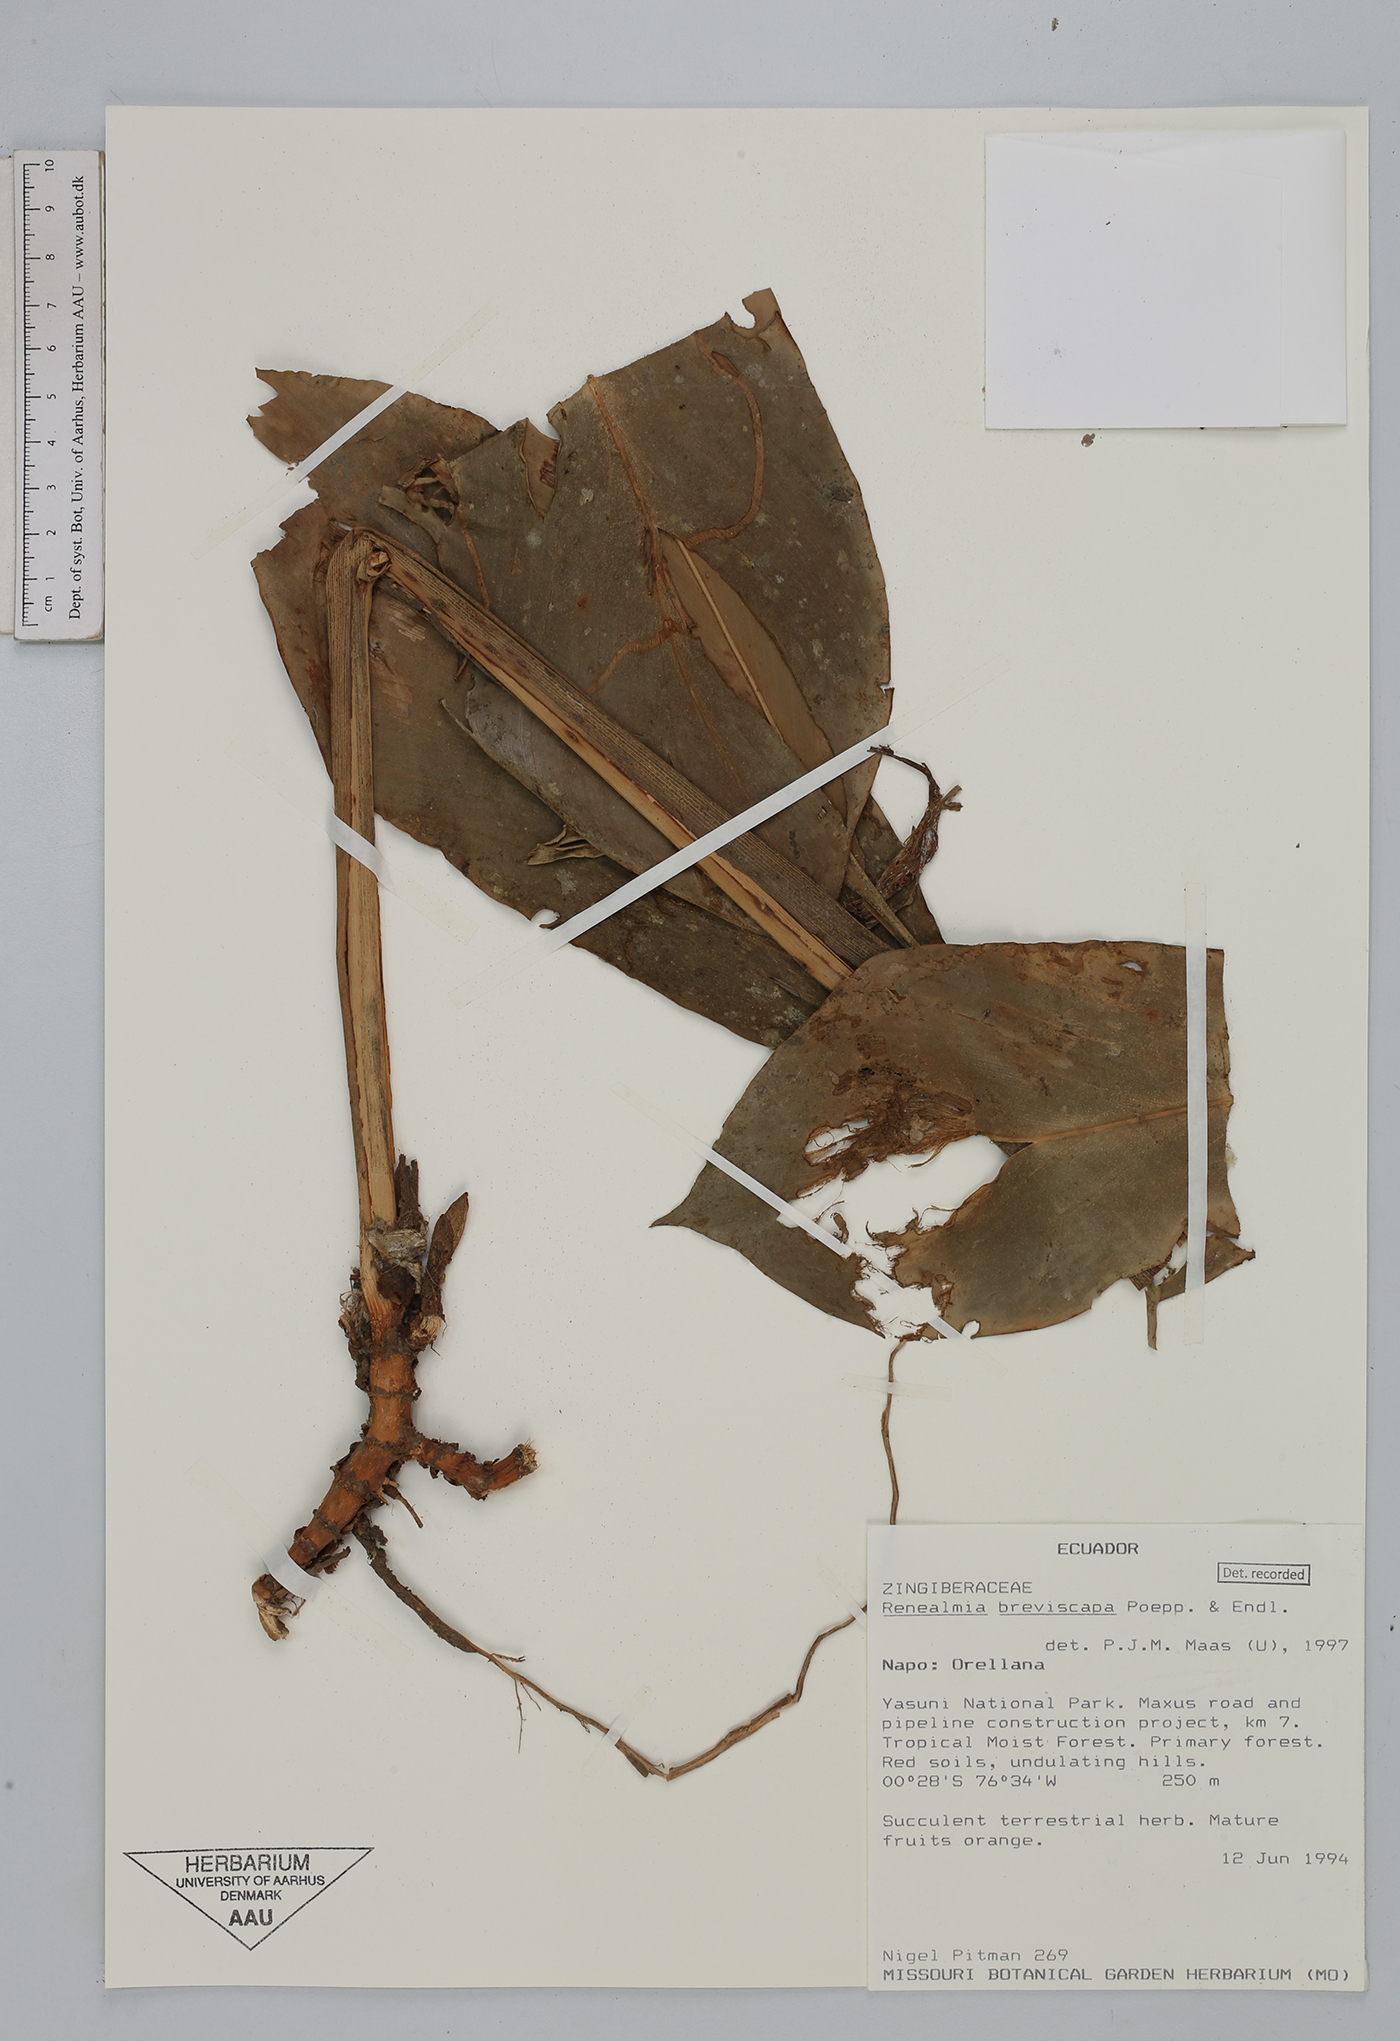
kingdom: Plantae
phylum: Tracheophyta
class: Liliopsida
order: Zingiberales
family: Zingiberaceae
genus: Renealmia
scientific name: Renealmia breviscapa
